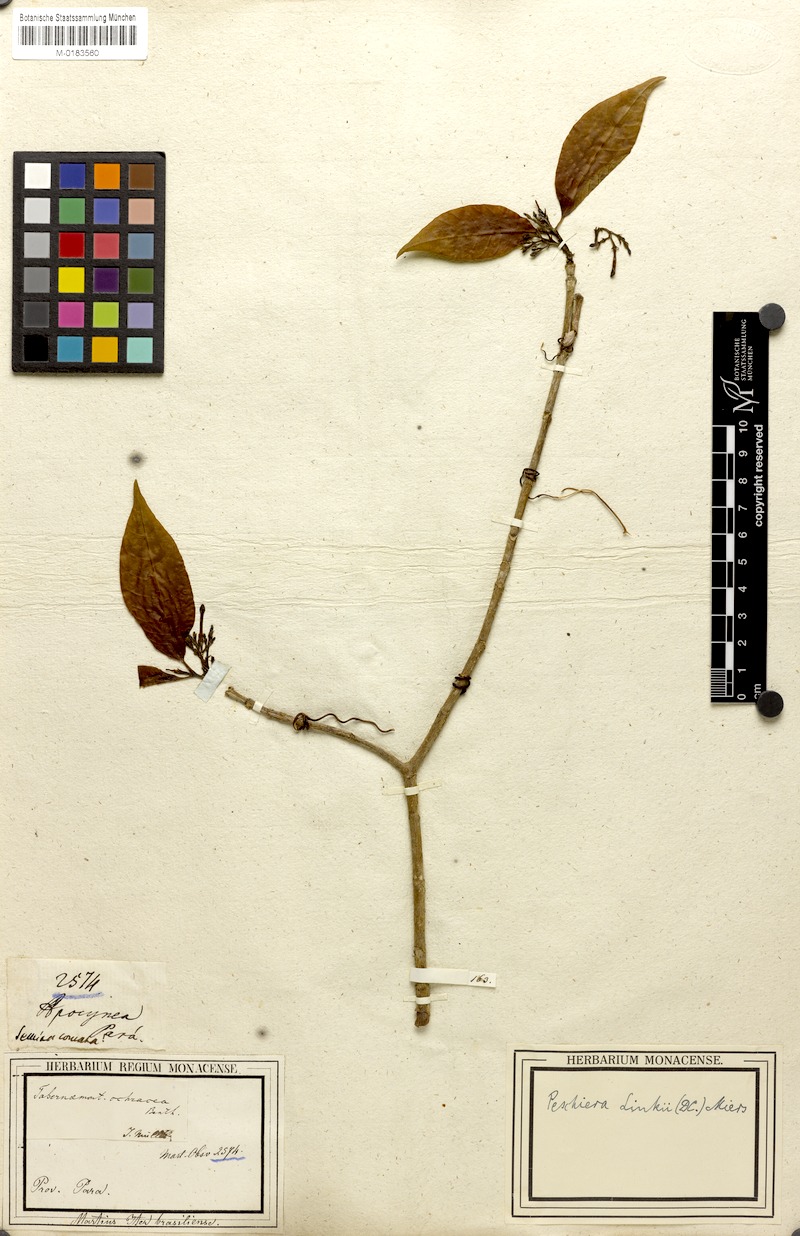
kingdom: Plantae
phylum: Tracheophyta
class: Magnoliopsida
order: Gentianales
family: Apocynaceae
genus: Tabernaemontana
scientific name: Tabernaemontana linkii
